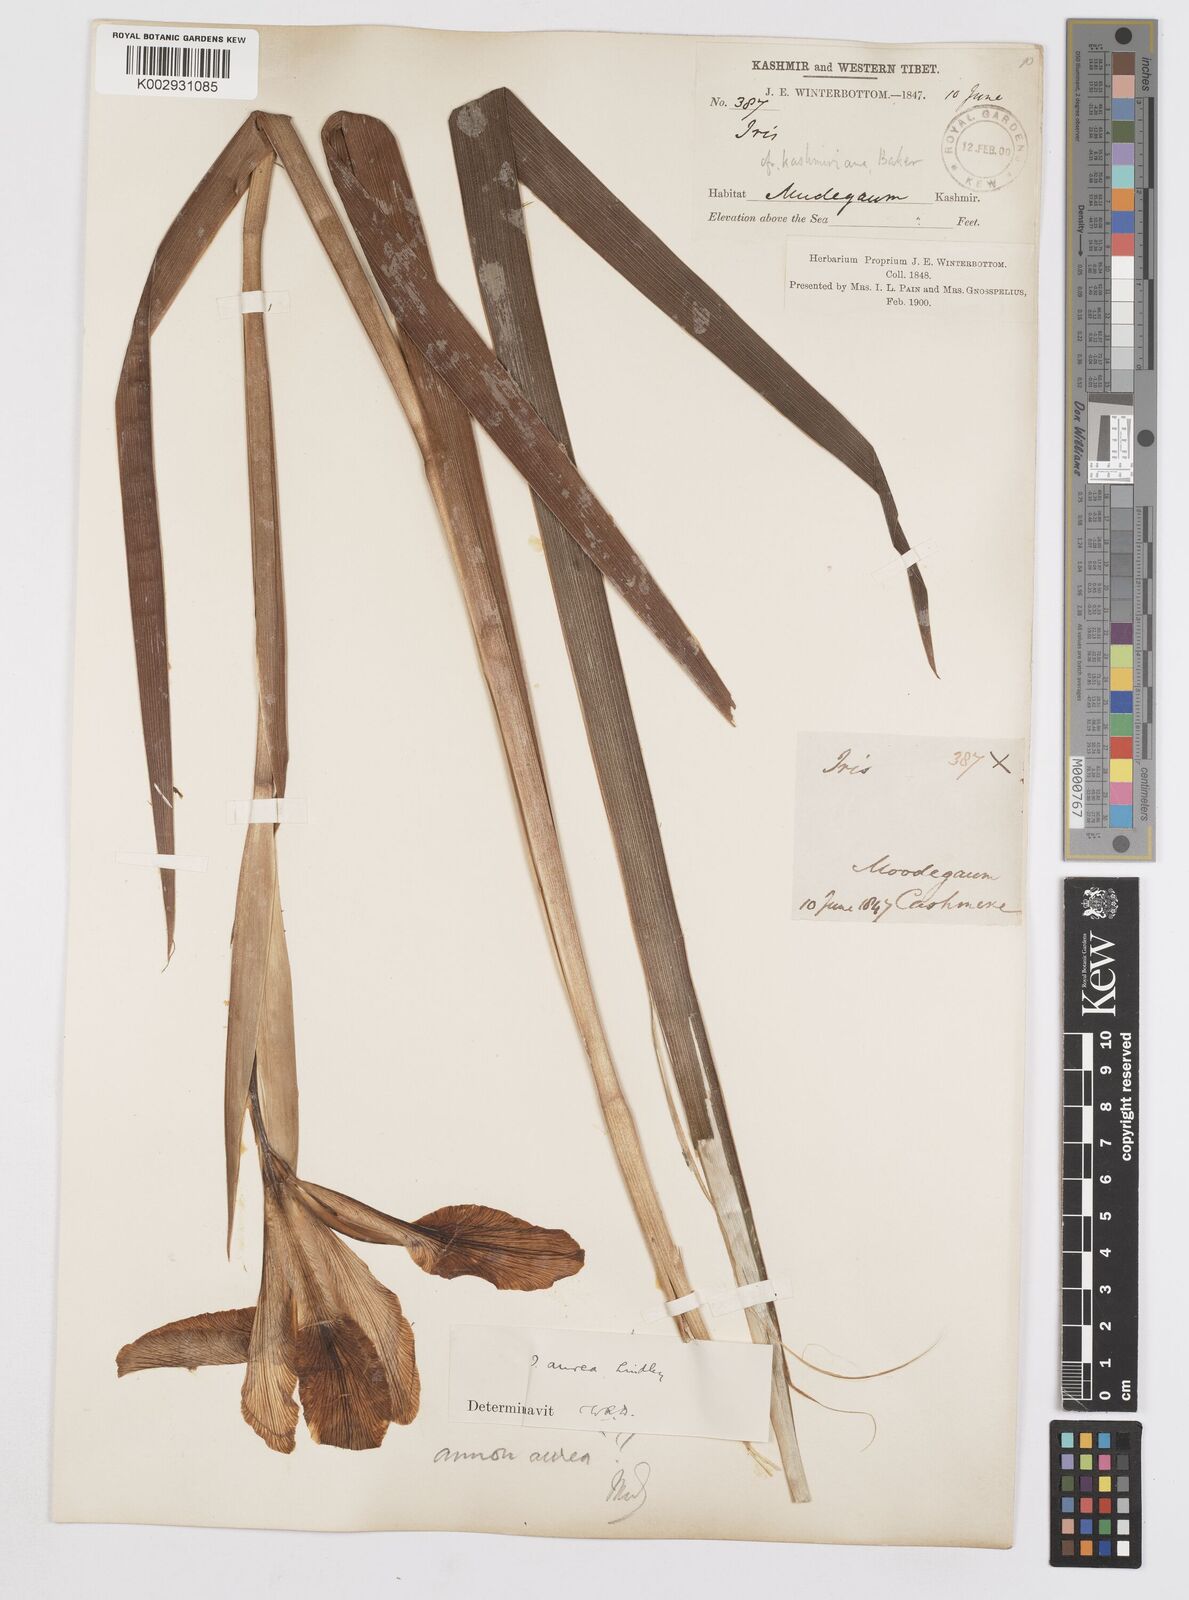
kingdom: Plantae
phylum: Tracheophyta
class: Liliopsida
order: Asparagales
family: Iridaceae
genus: Iris
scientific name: Iris crocea
